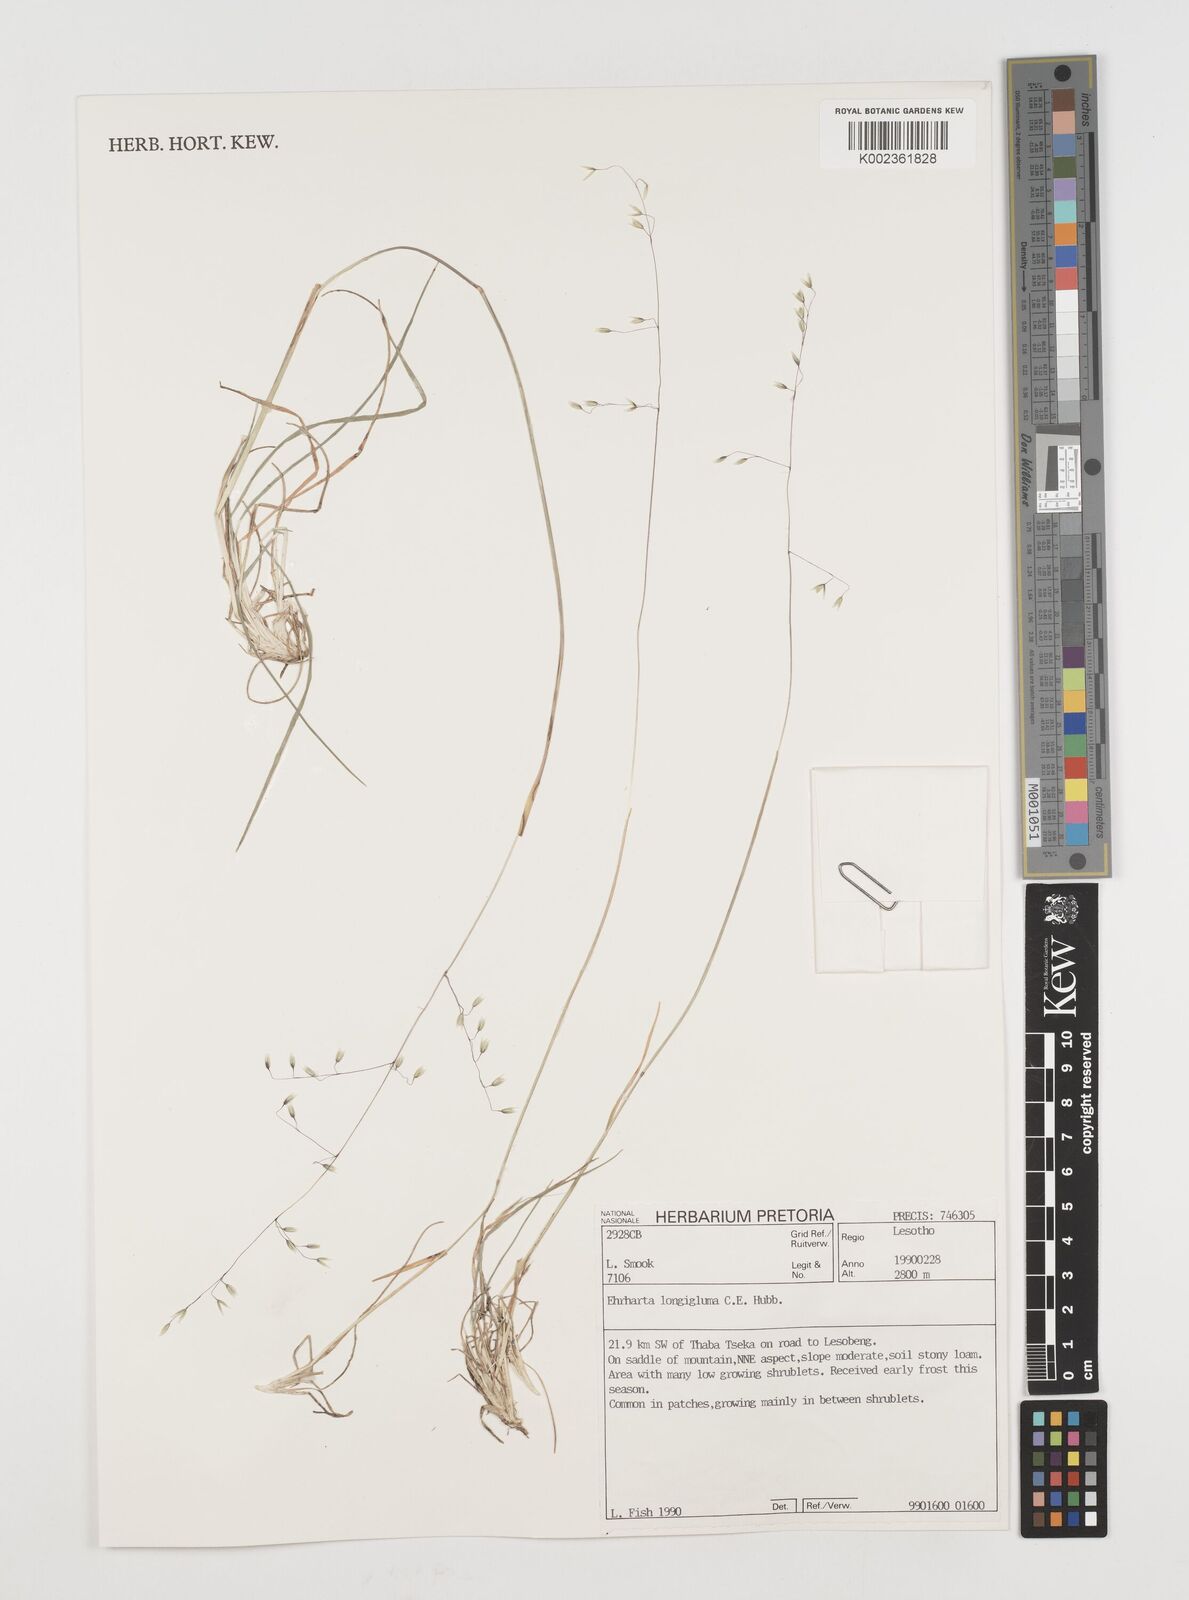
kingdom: Plantae
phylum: Tracheophyta
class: Liliopsida
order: Poales
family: Poaceae
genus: Ehrharta
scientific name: Ehrharta longigluma
